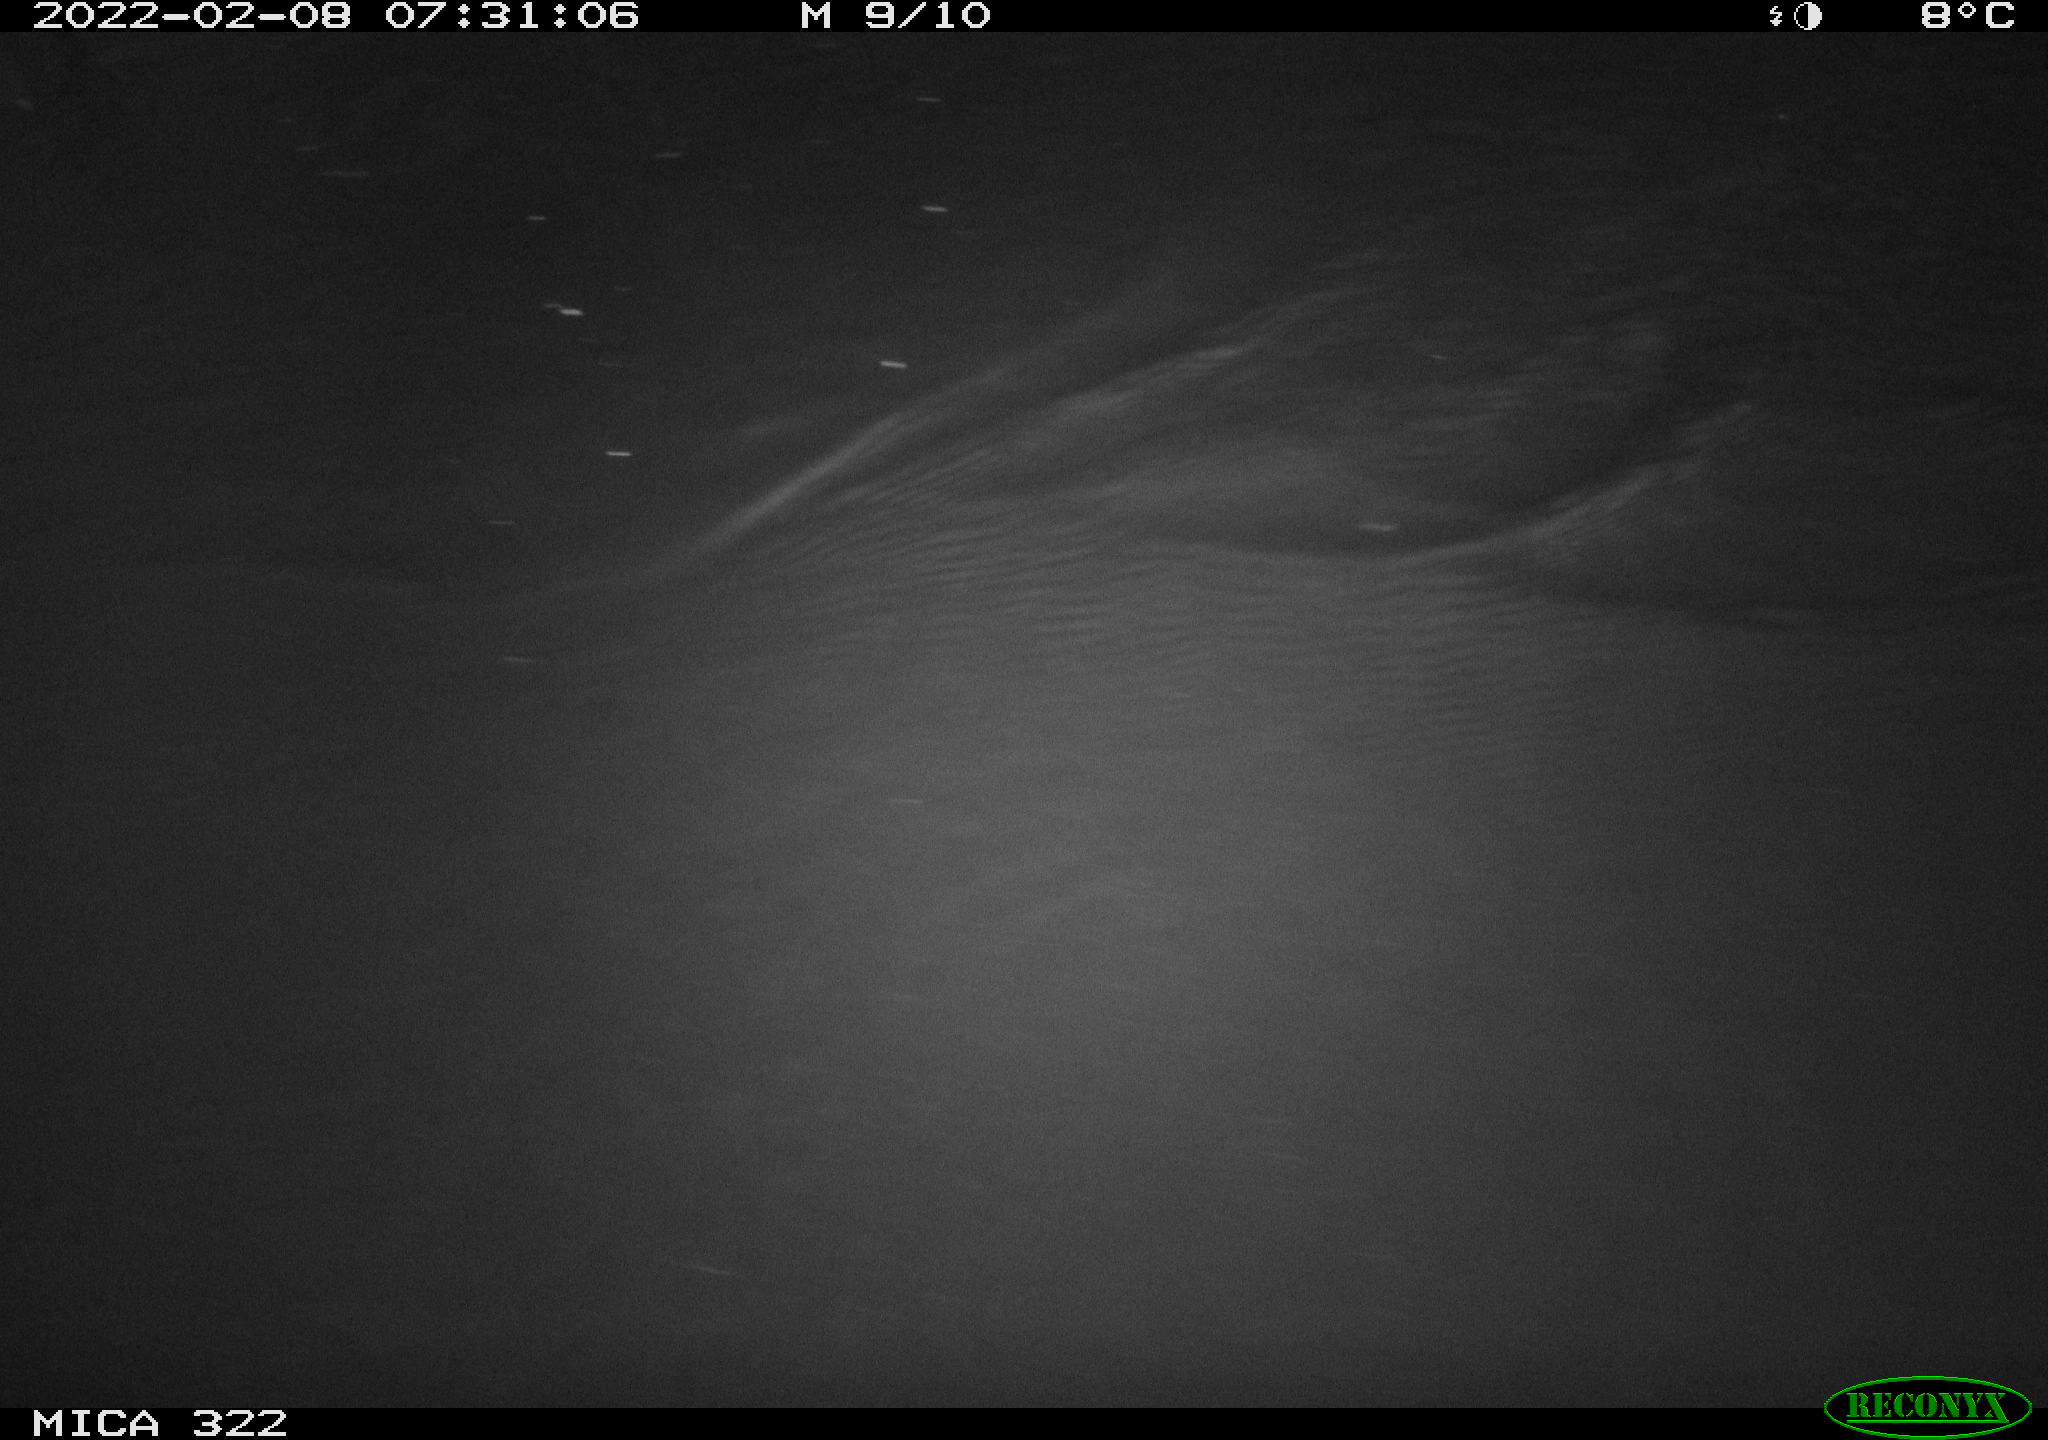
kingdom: Animalia
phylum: Chordata
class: Aves
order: Gruiformes
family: Rallidae
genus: Fulica
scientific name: Fulica atra
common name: Eurasian coot
